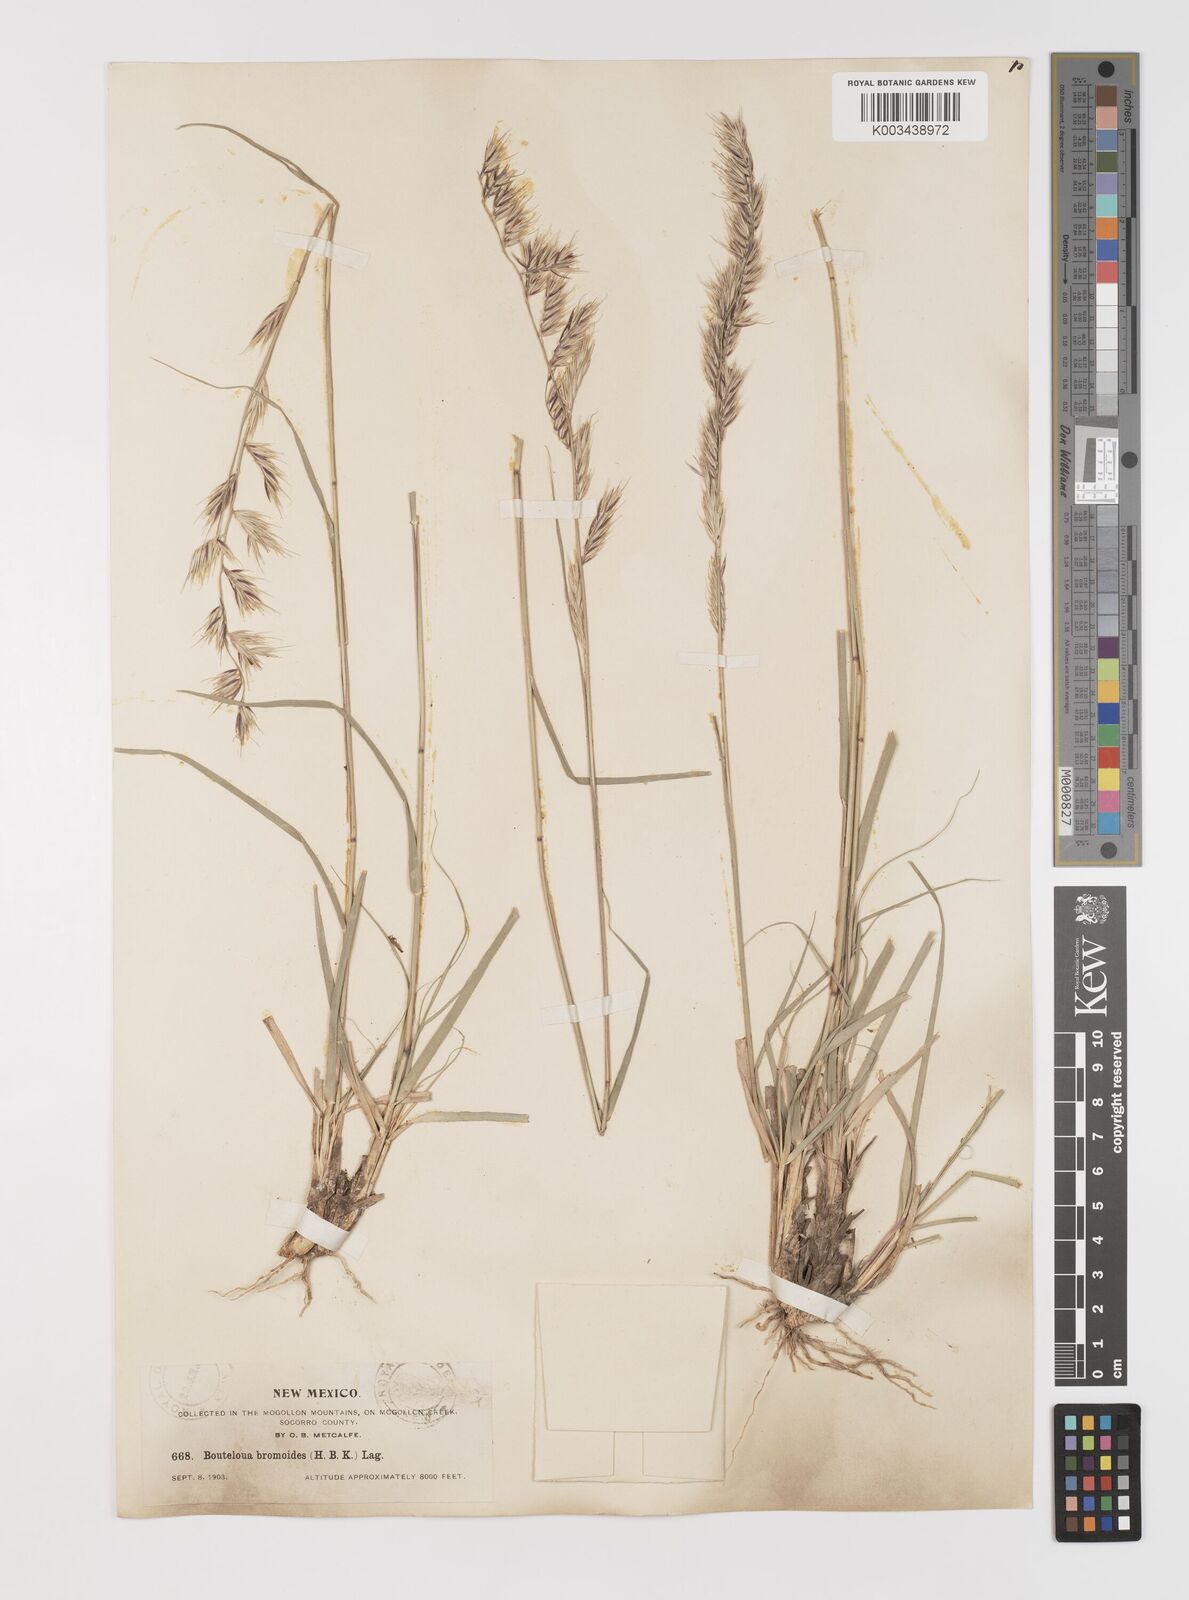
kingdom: Plantae
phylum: Tracheophyta
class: Liliopsida
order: Poales
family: Poaceae
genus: Bouteloua
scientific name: Bouteloua radicosa
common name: Purple grama
